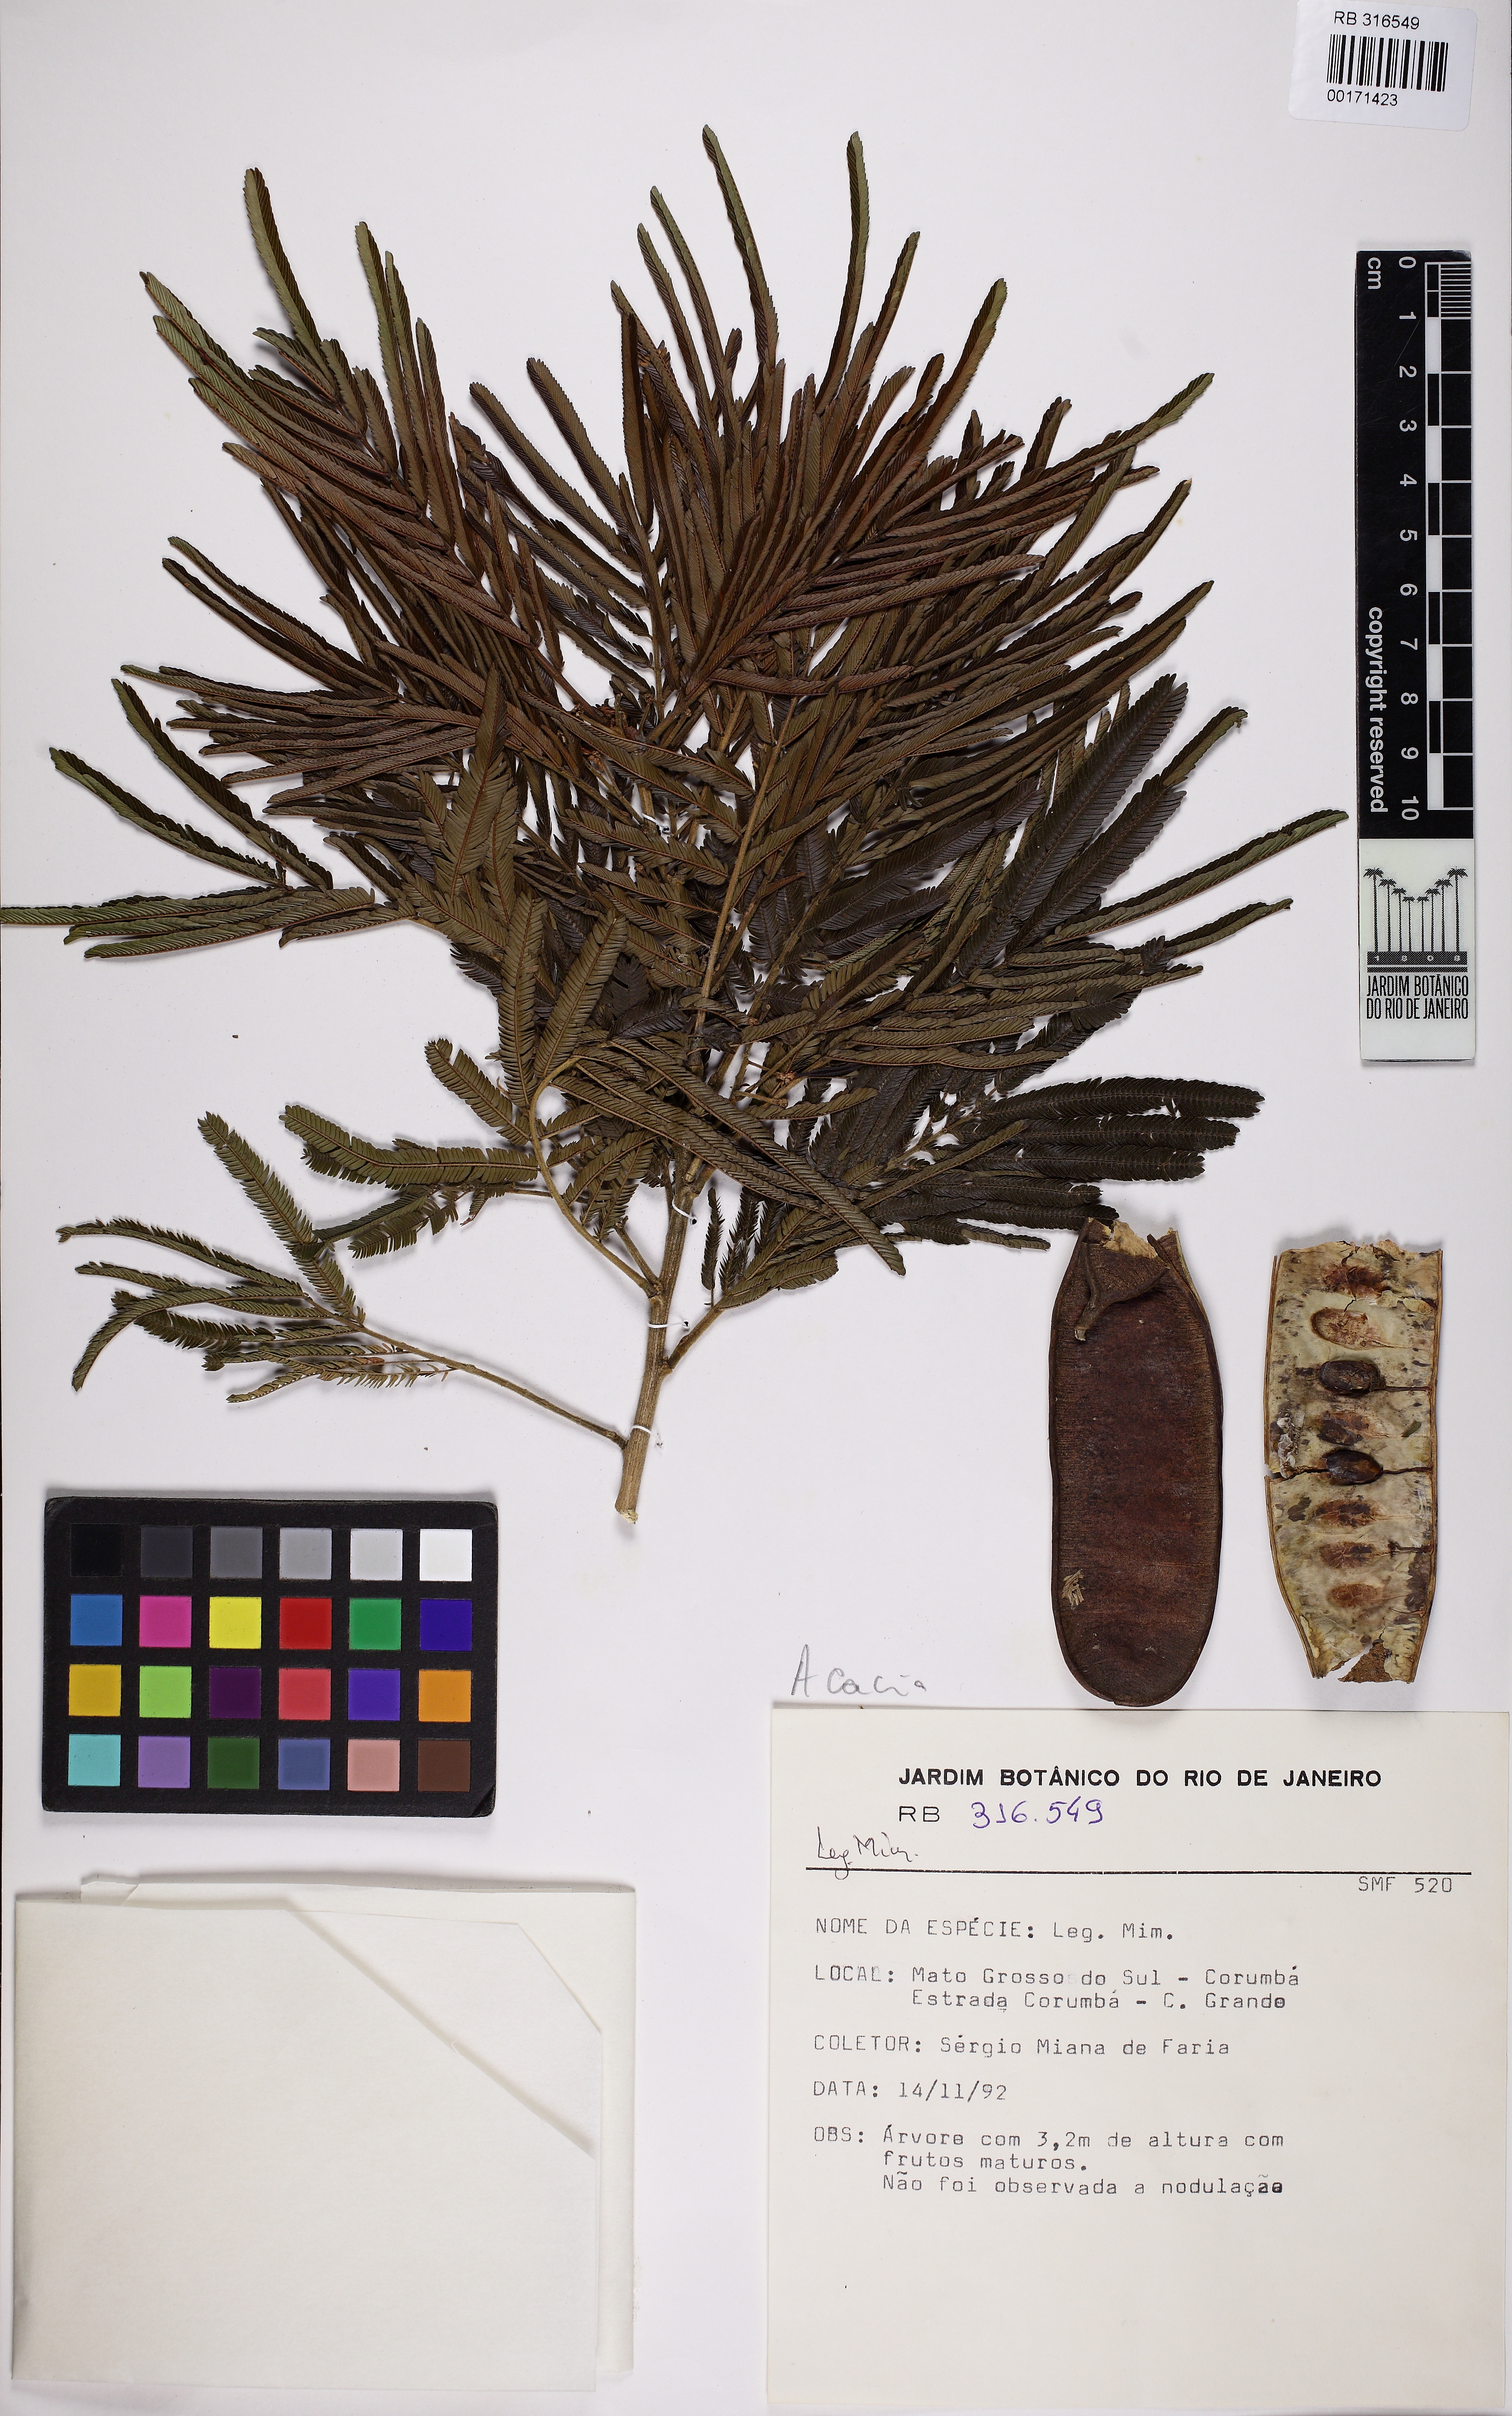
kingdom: Plantae
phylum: Tracheophyta
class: Magnoliopsida
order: Fabales
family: Fabaceae
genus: Acacia
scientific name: Acacia
